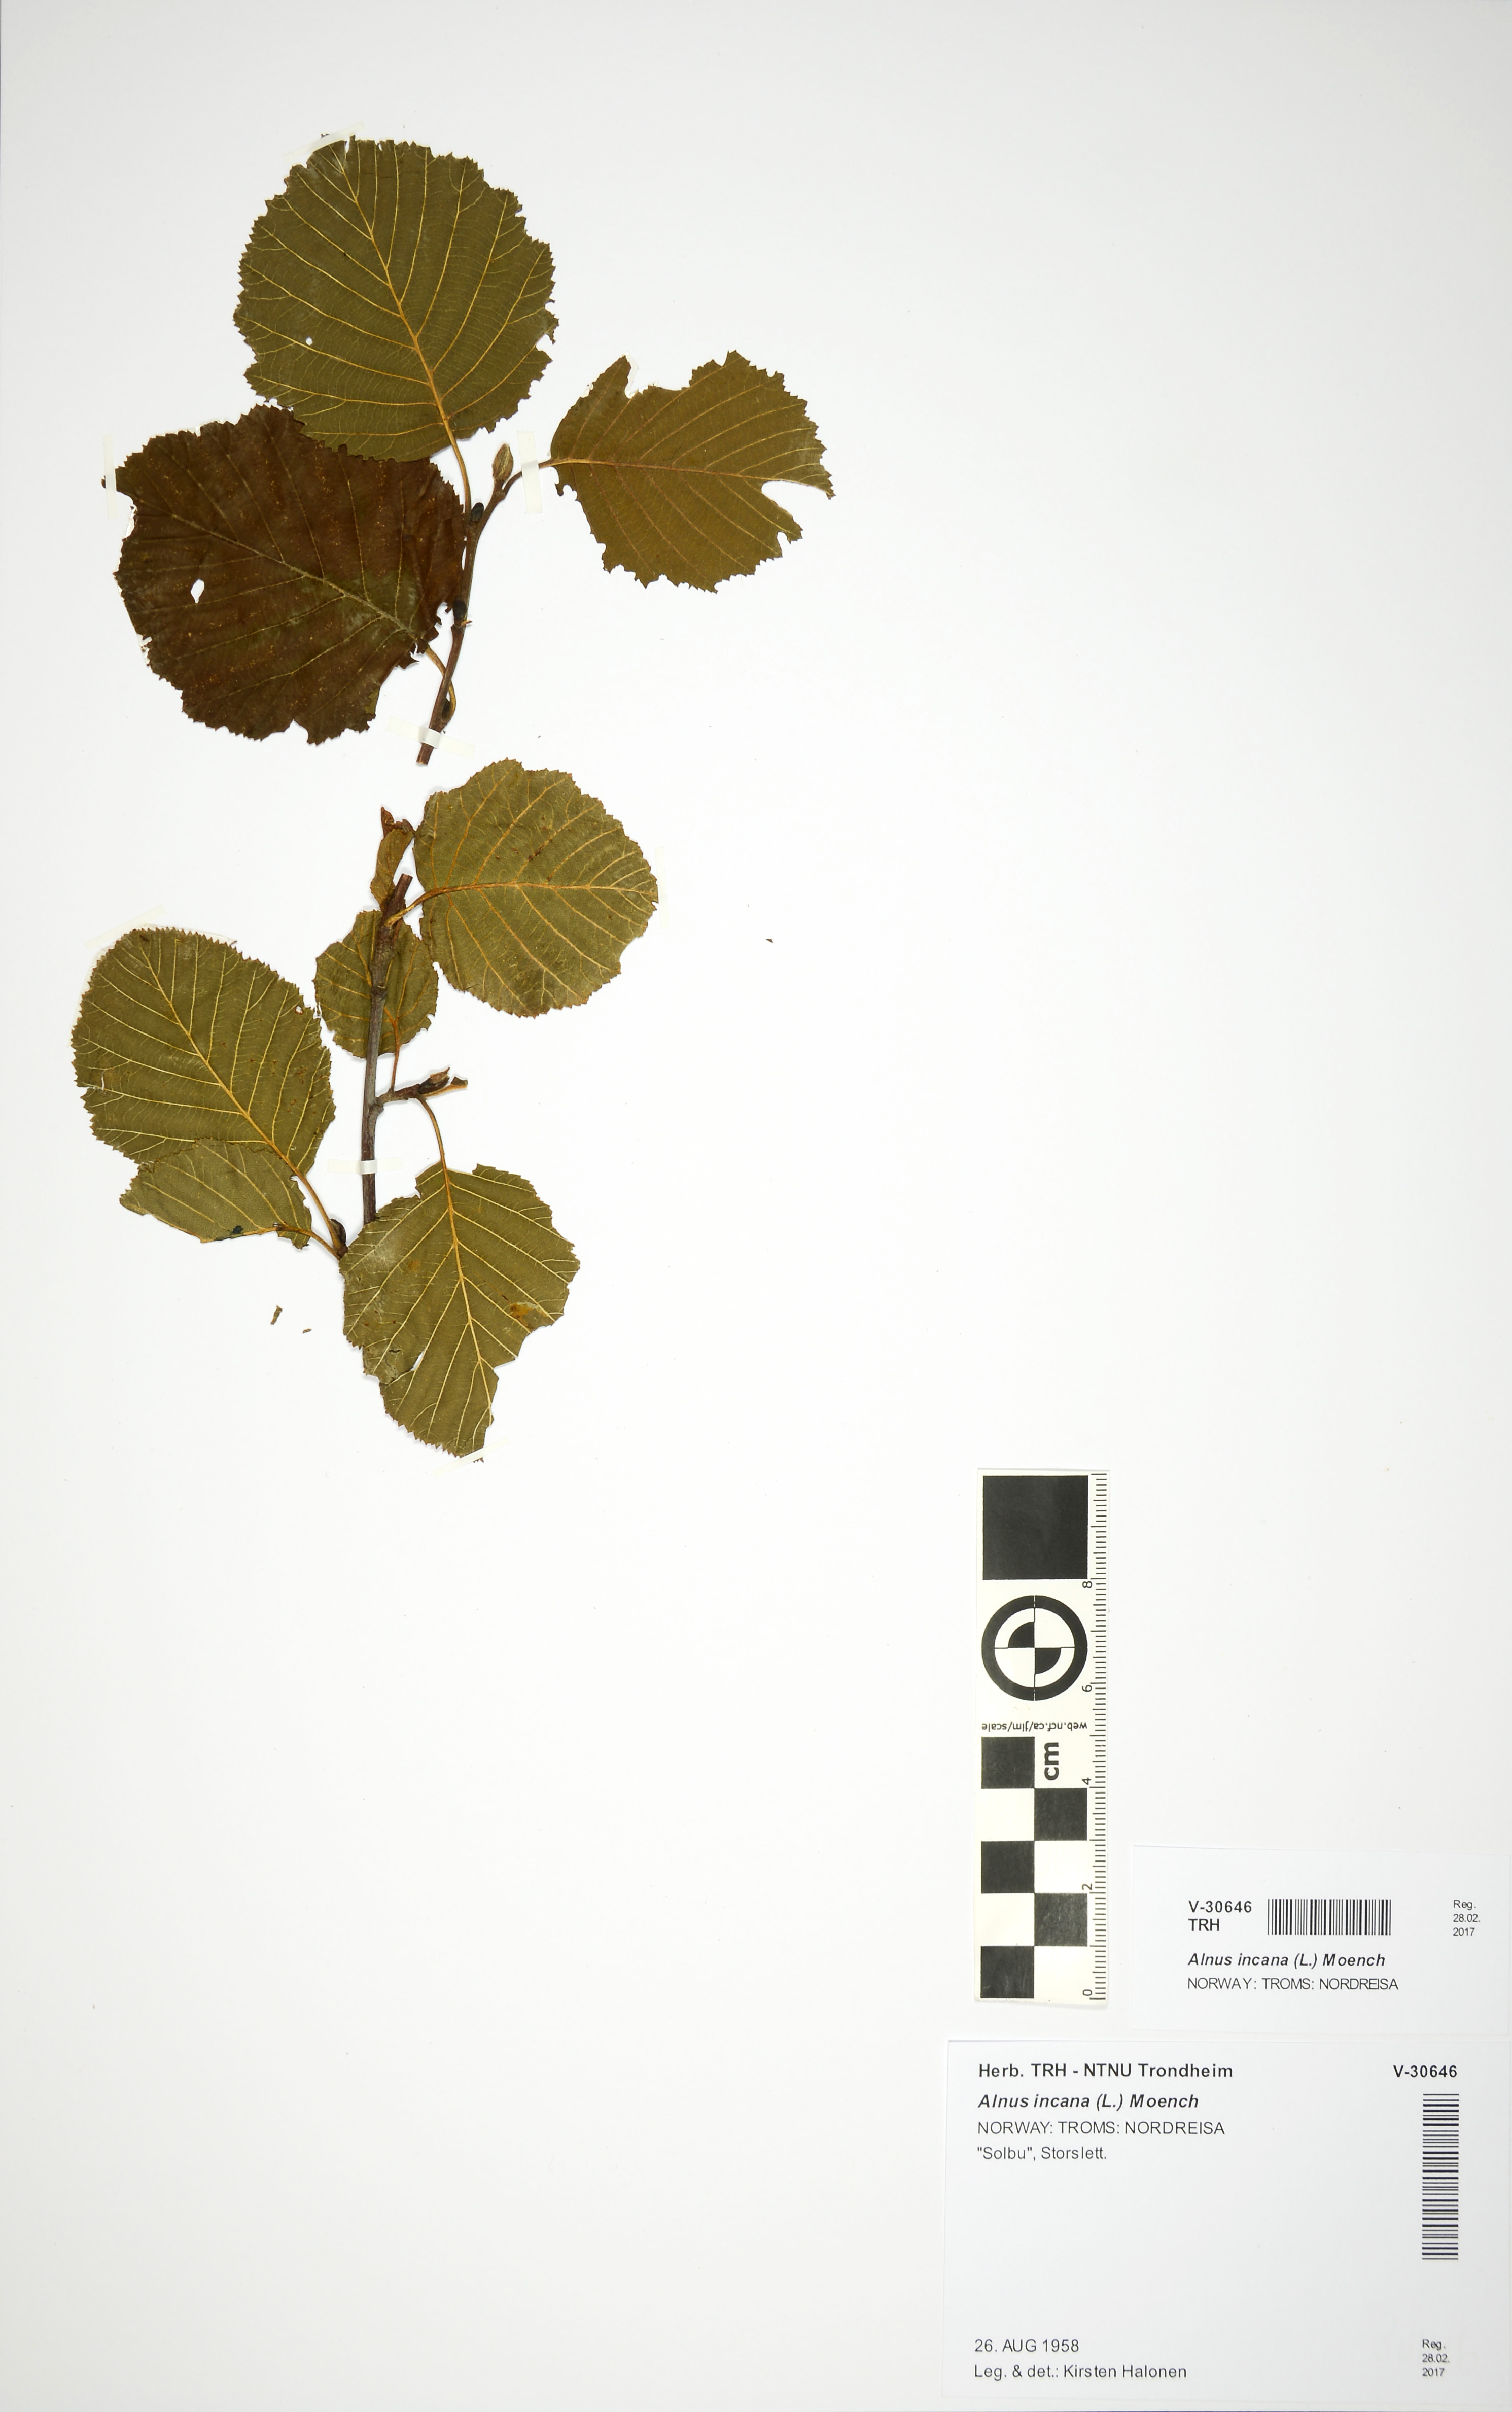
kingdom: Plantae
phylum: Tracheophyta
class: Magnoliopsida
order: Fagales
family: Betulaceae
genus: Alnus
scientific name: Alnus incana
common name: Grey alder
